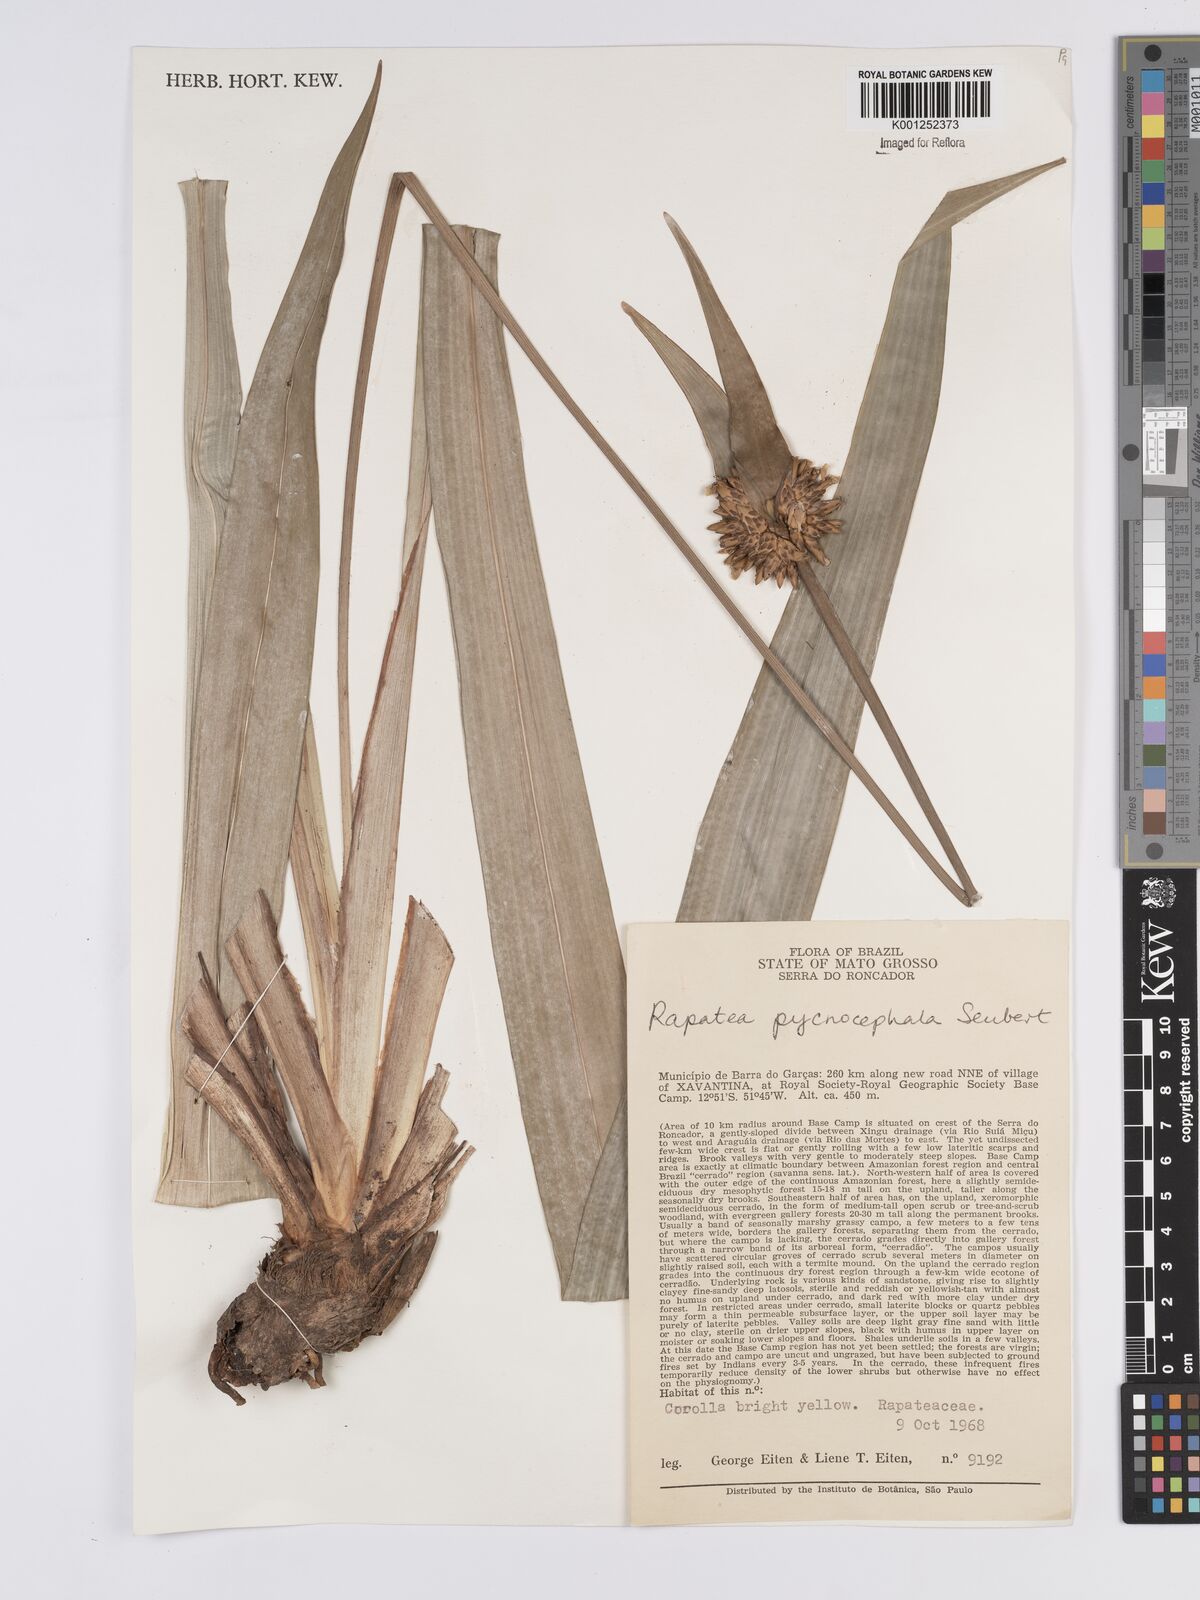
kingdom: Plantae
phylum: Tracheophyta
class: Liliopsida
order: Poales
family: Rapateaceae
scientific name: Rapateaceae
